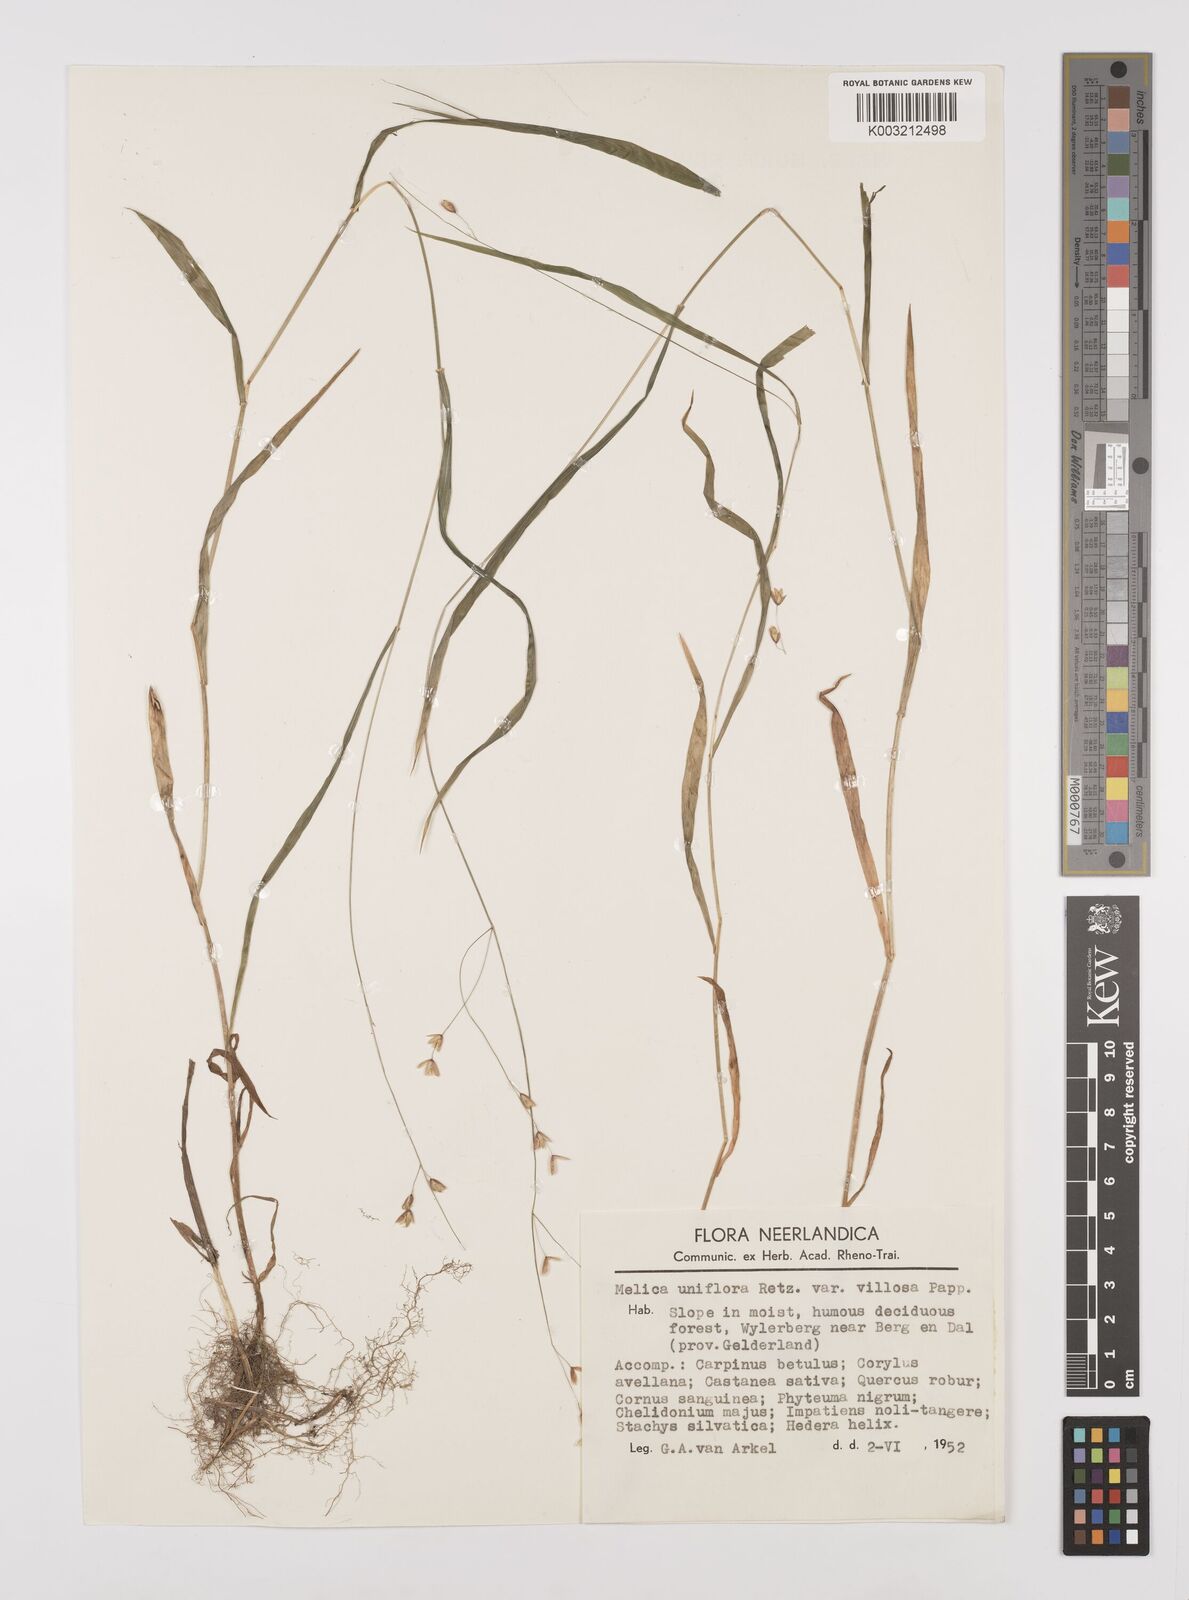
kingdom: Plantae
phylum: Tracheophyta
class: Liliopsida
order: Poales
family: Poaceae
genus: Melica
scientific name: Melica uniflora
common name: Wood melick
